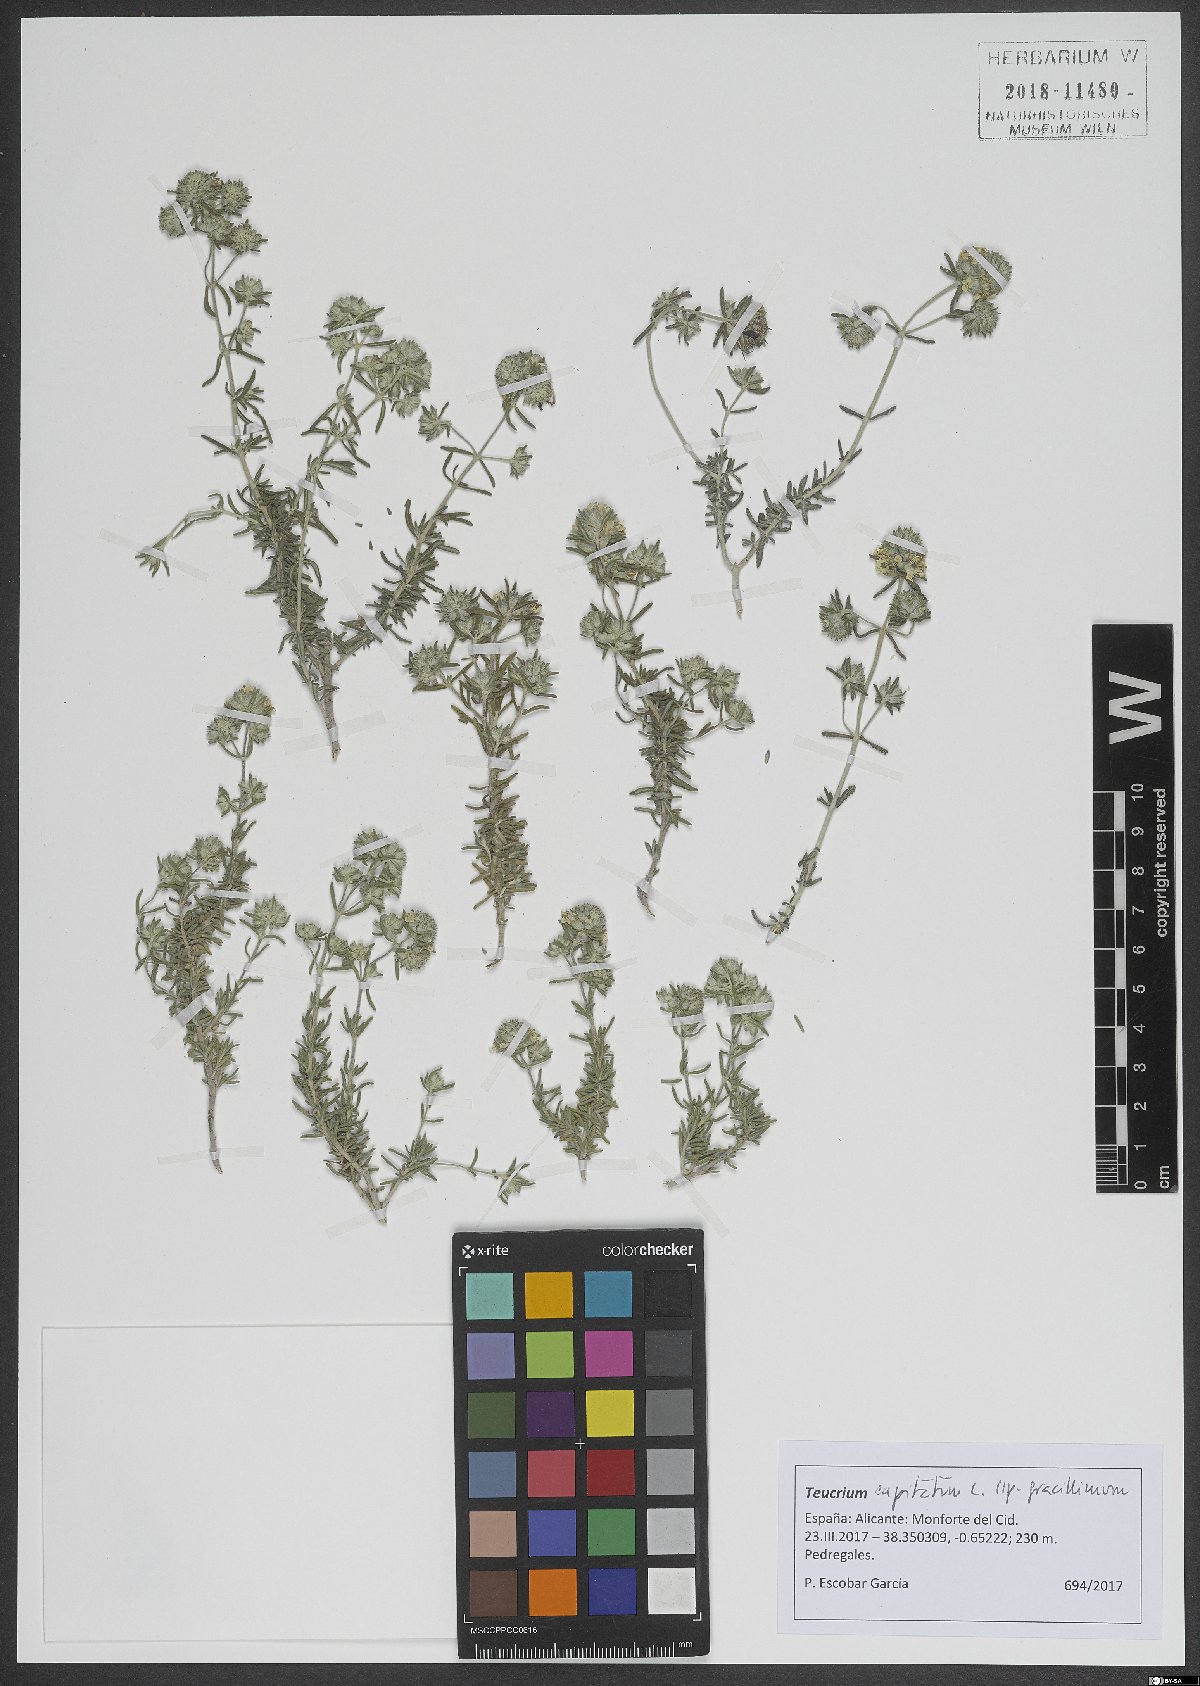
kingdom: Plantae
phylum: Tracheophyta
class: Magnoliopsida
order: Lamiales
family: Lamiaceae
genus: Teucrium
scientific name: Teucrium capitatum
